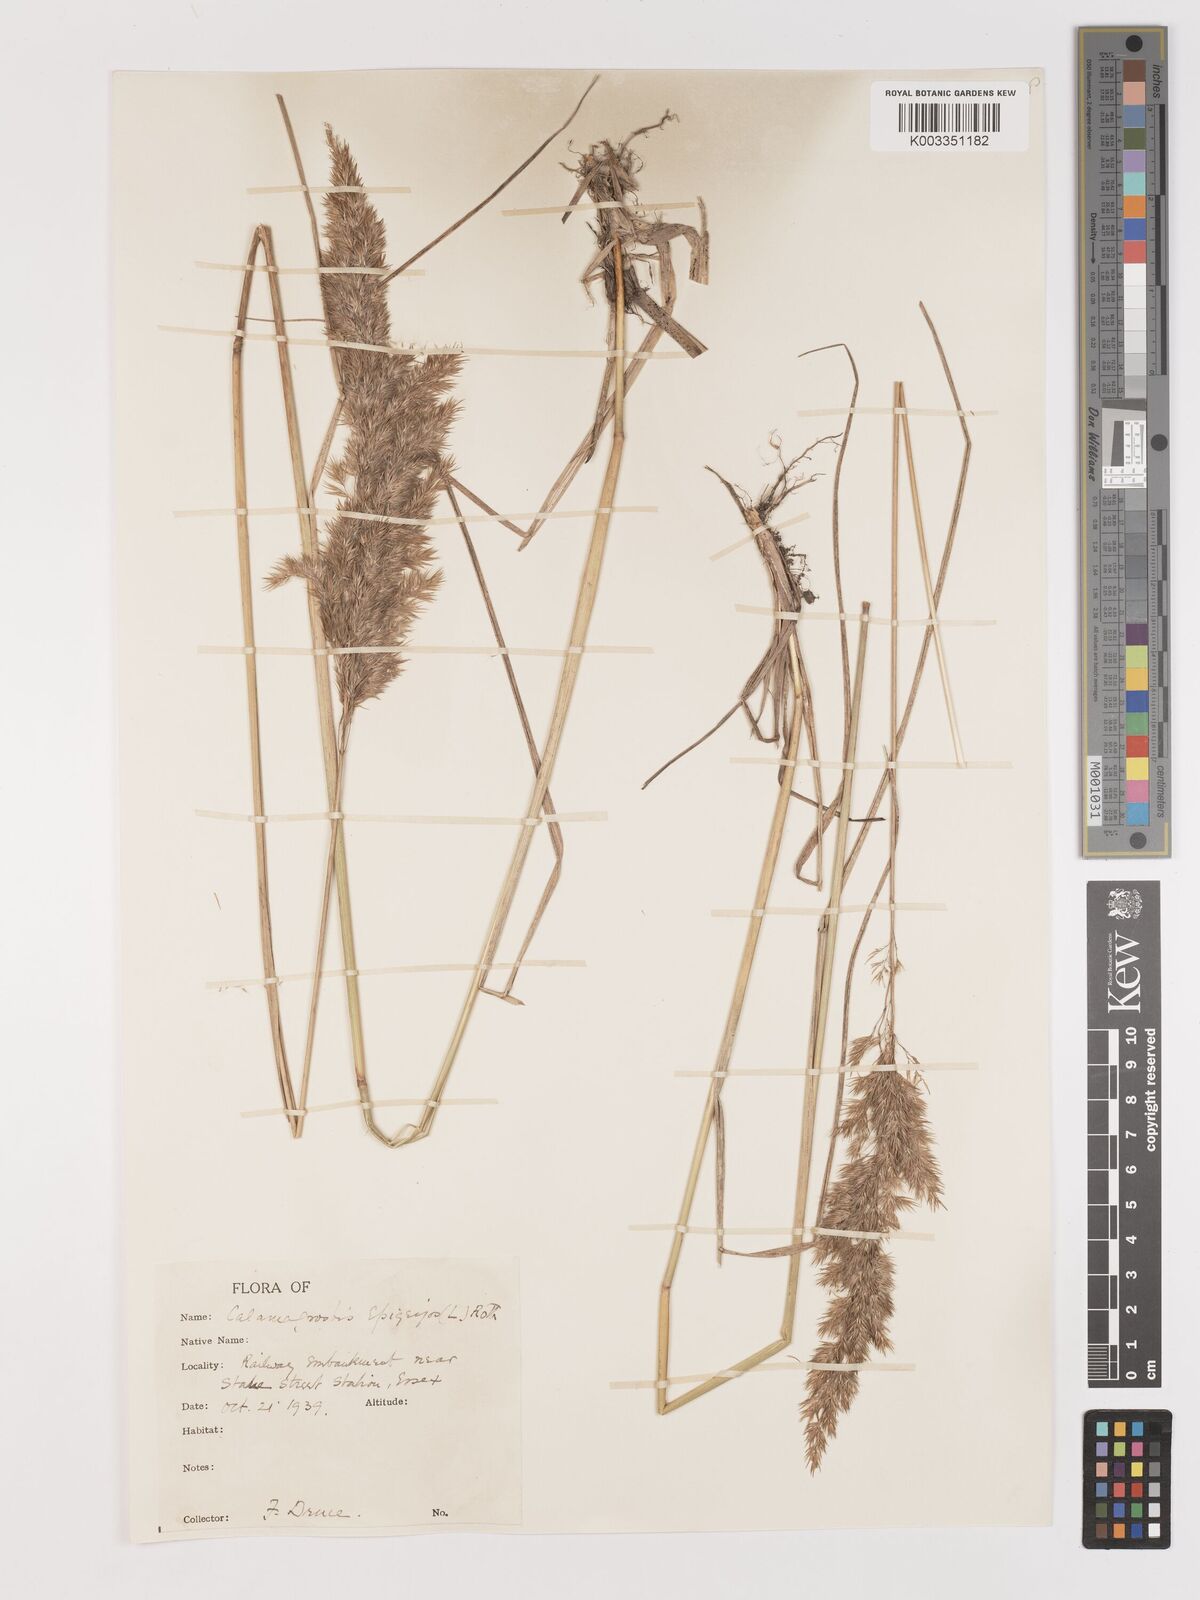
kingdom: Plantae
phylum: Tracheophyta
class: Liliopsida
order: Poales
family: Poaceae
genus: Calamagrostis
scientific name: Calamagrostis
